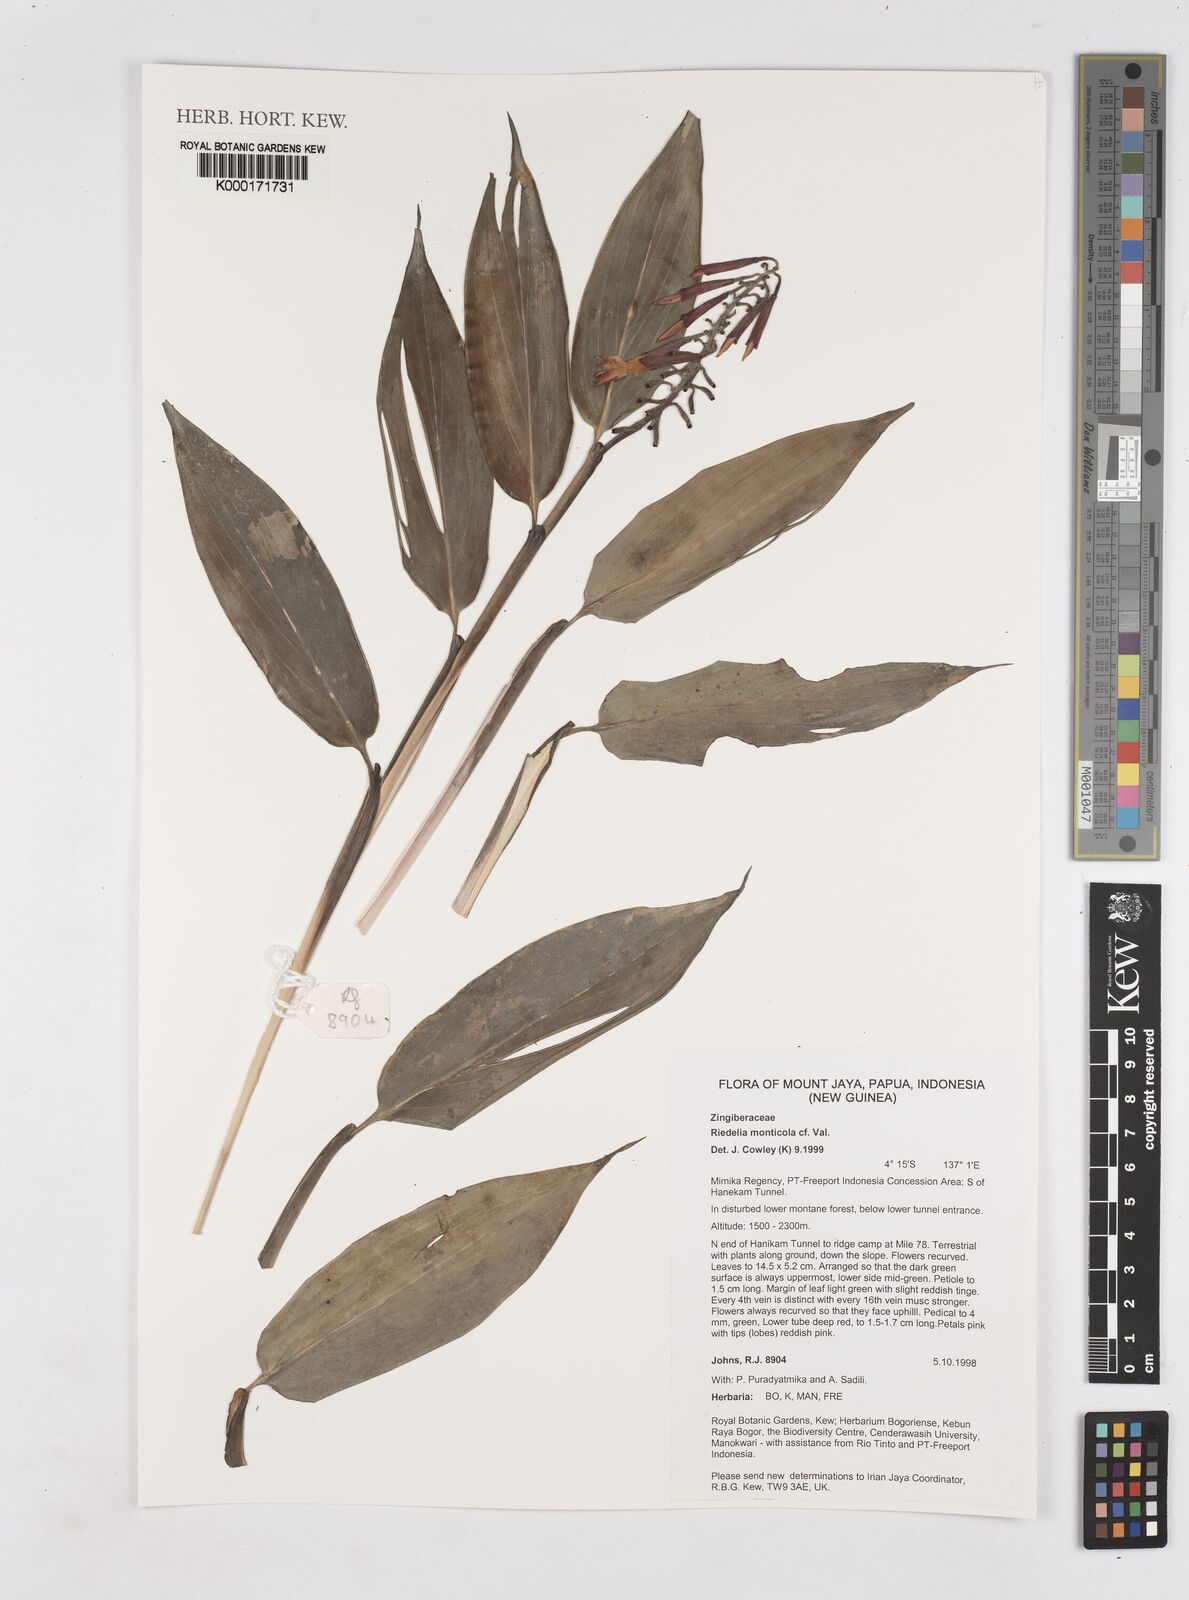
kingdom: Plantae
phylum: Tracheophyta
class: Liliopsida
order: Zingiberales
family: Zingiberaceae
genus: Riedelia
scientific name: Riedelia monticola
